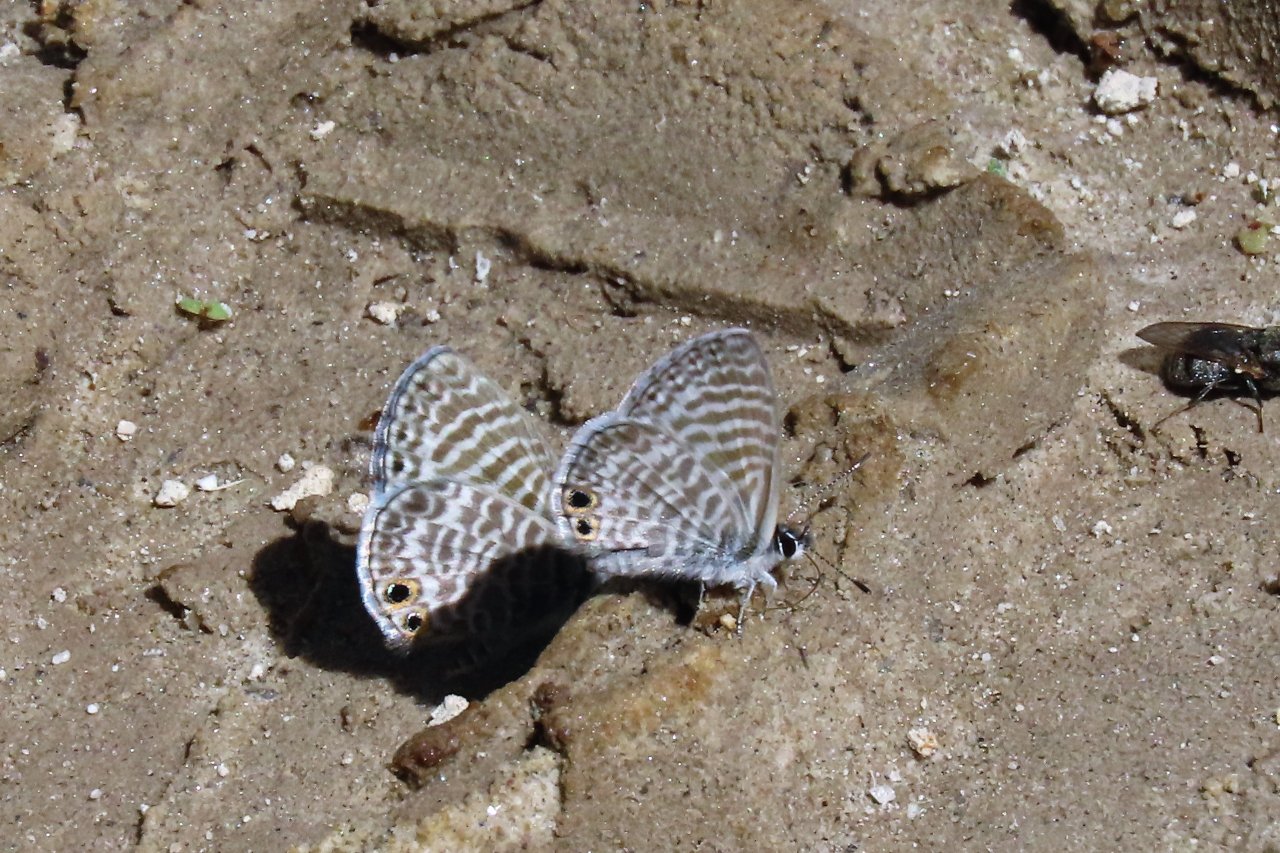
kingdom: Animalia
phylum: Arthropoda
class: Insecta
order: Lepidoptera
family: Lycaenidae
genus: Leptotes
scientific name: Leptotes marina
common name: Marine Blue
